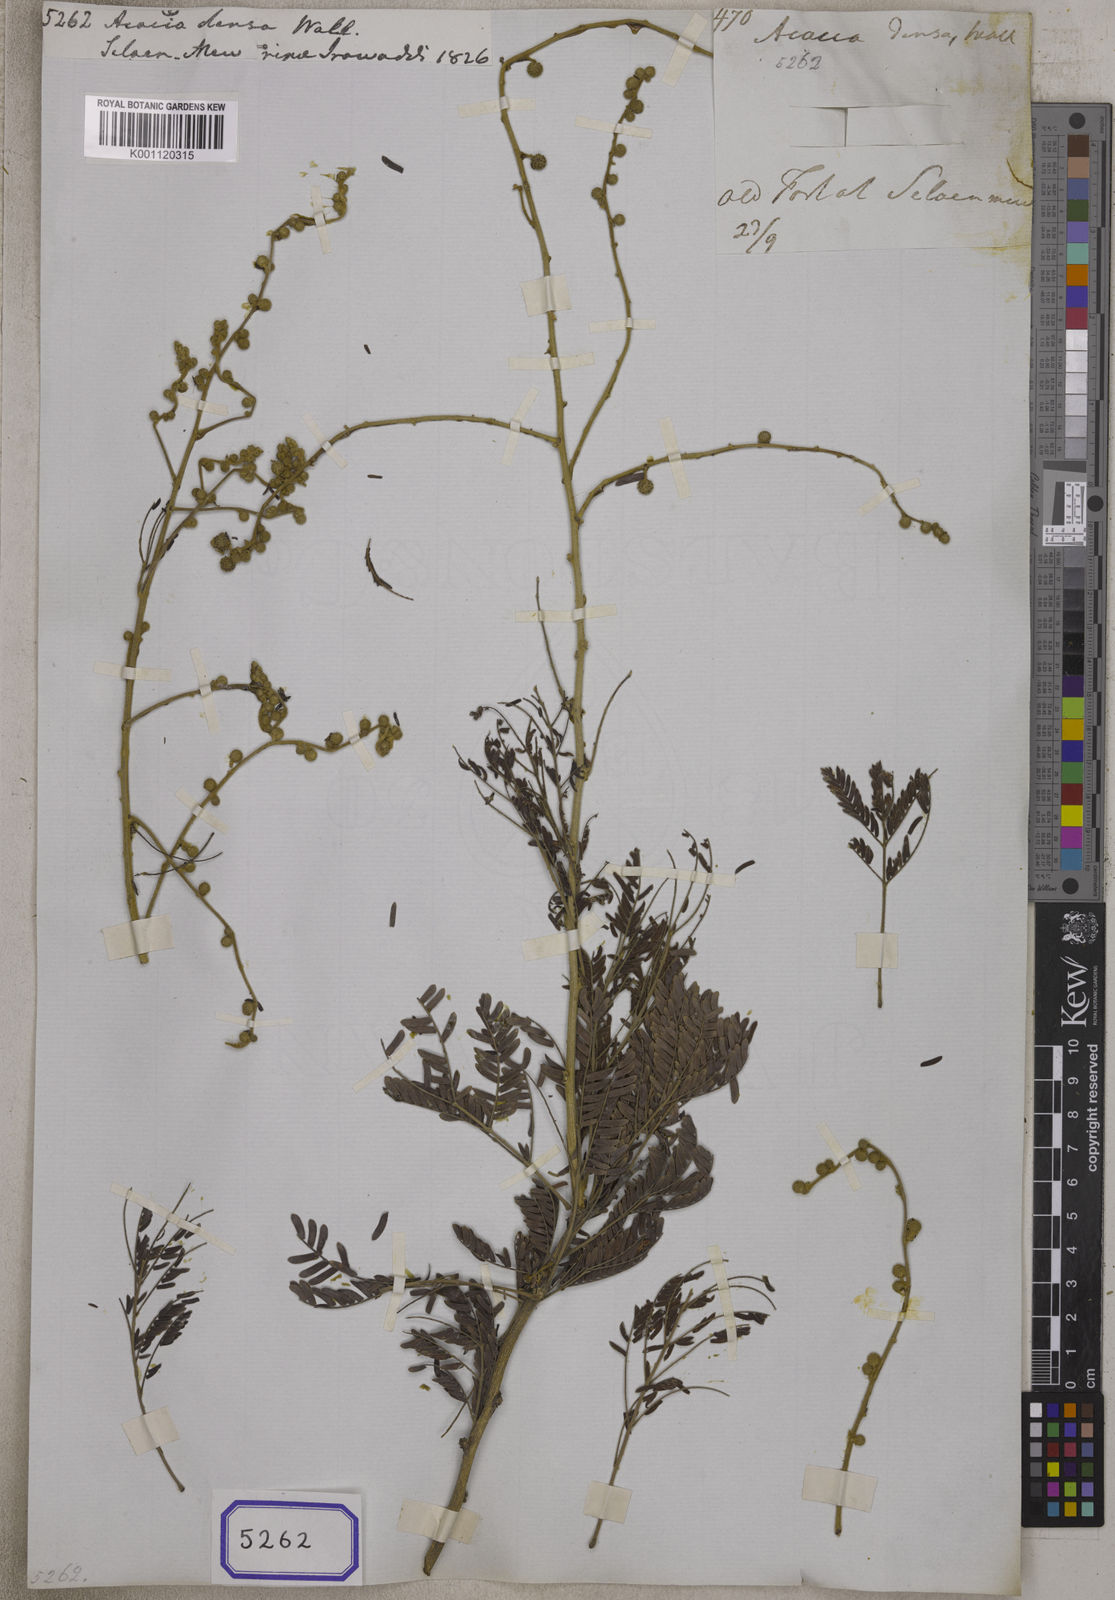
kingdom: Plantae
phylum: Tracheophyta
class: Magnoliopsida
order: Fabales
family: Fabaceae
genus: Vachellia
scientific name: Vachellia leucophloea
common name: Distiller's acacia
